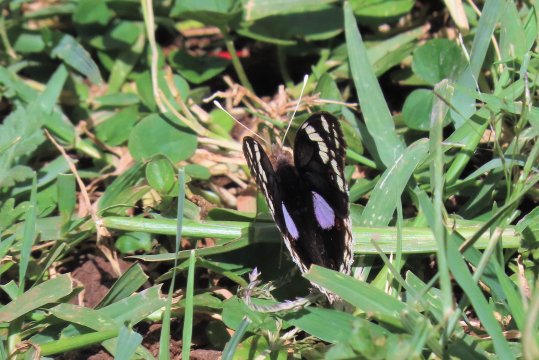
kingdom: Animalia
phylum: Arthropoda
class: Insecta
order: Lepidoptera
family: Nymphalidae
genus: Junonia
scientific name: Junonia oenone
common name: Dark blue pansy
